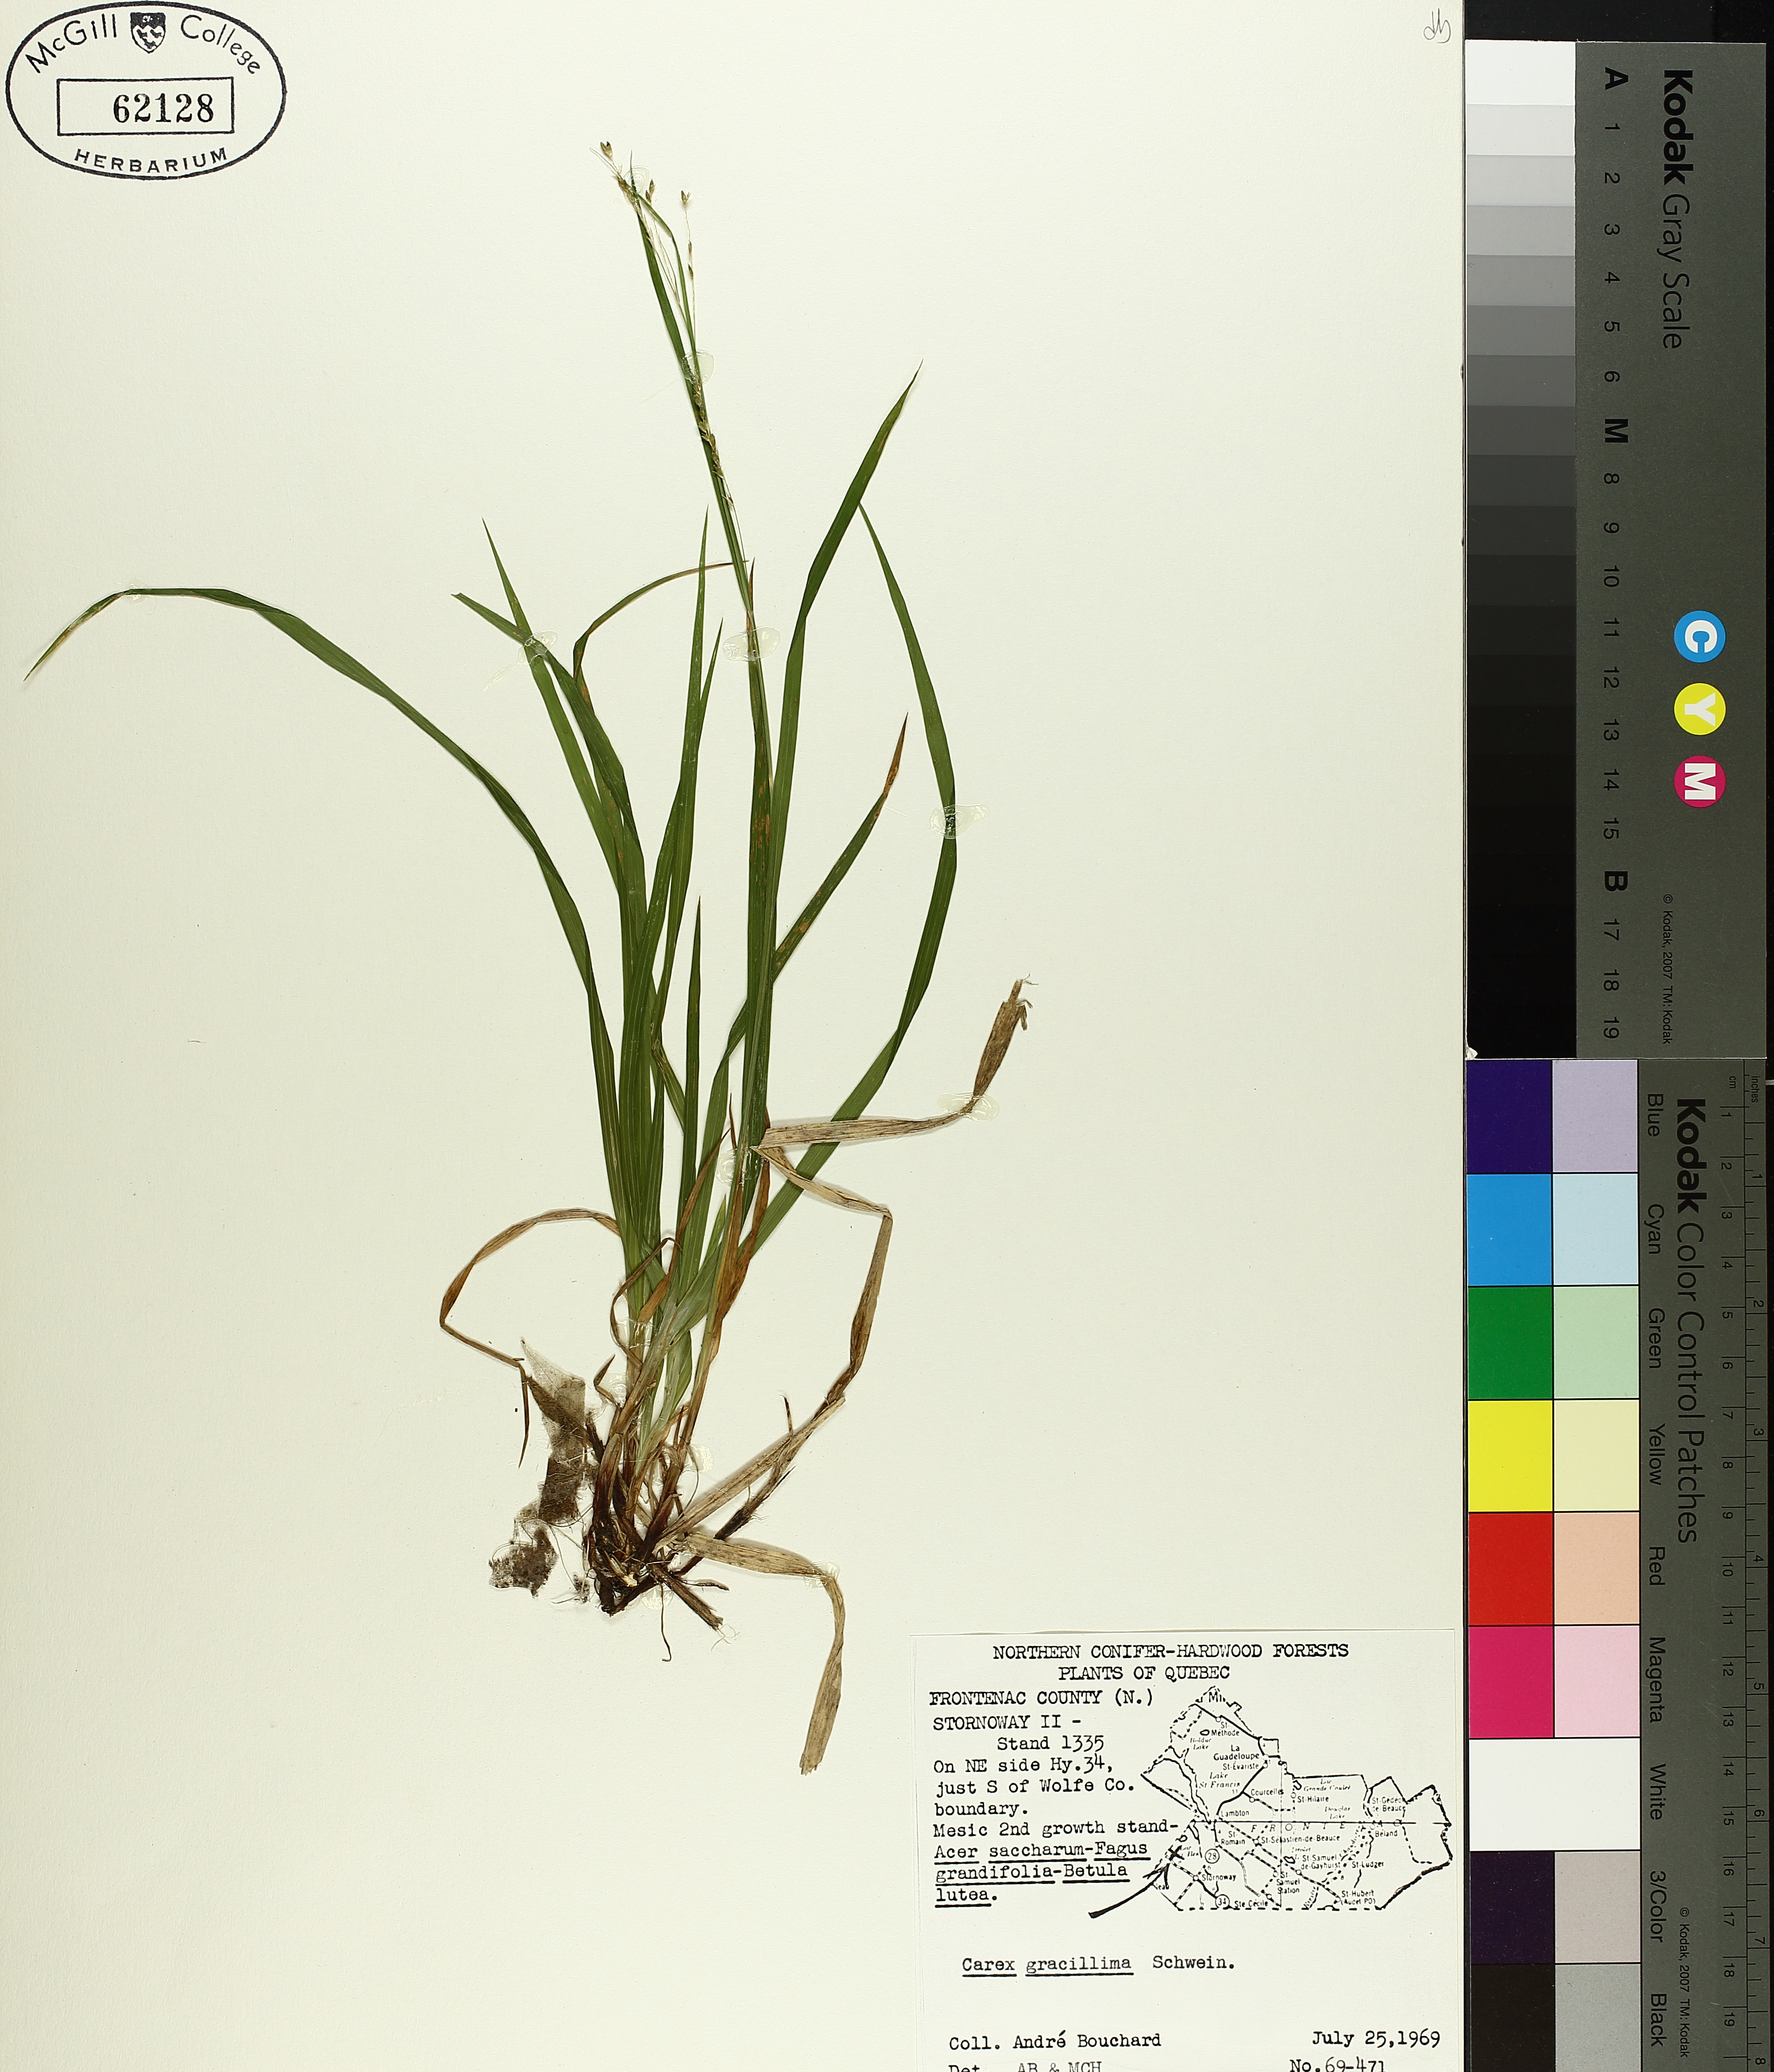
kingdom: Plantae
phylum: Tracheophyta
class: Liliopsida
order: Poales
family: Cyperaceae
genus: Carex
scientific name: Carex gracillima
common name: Graceful sedge
